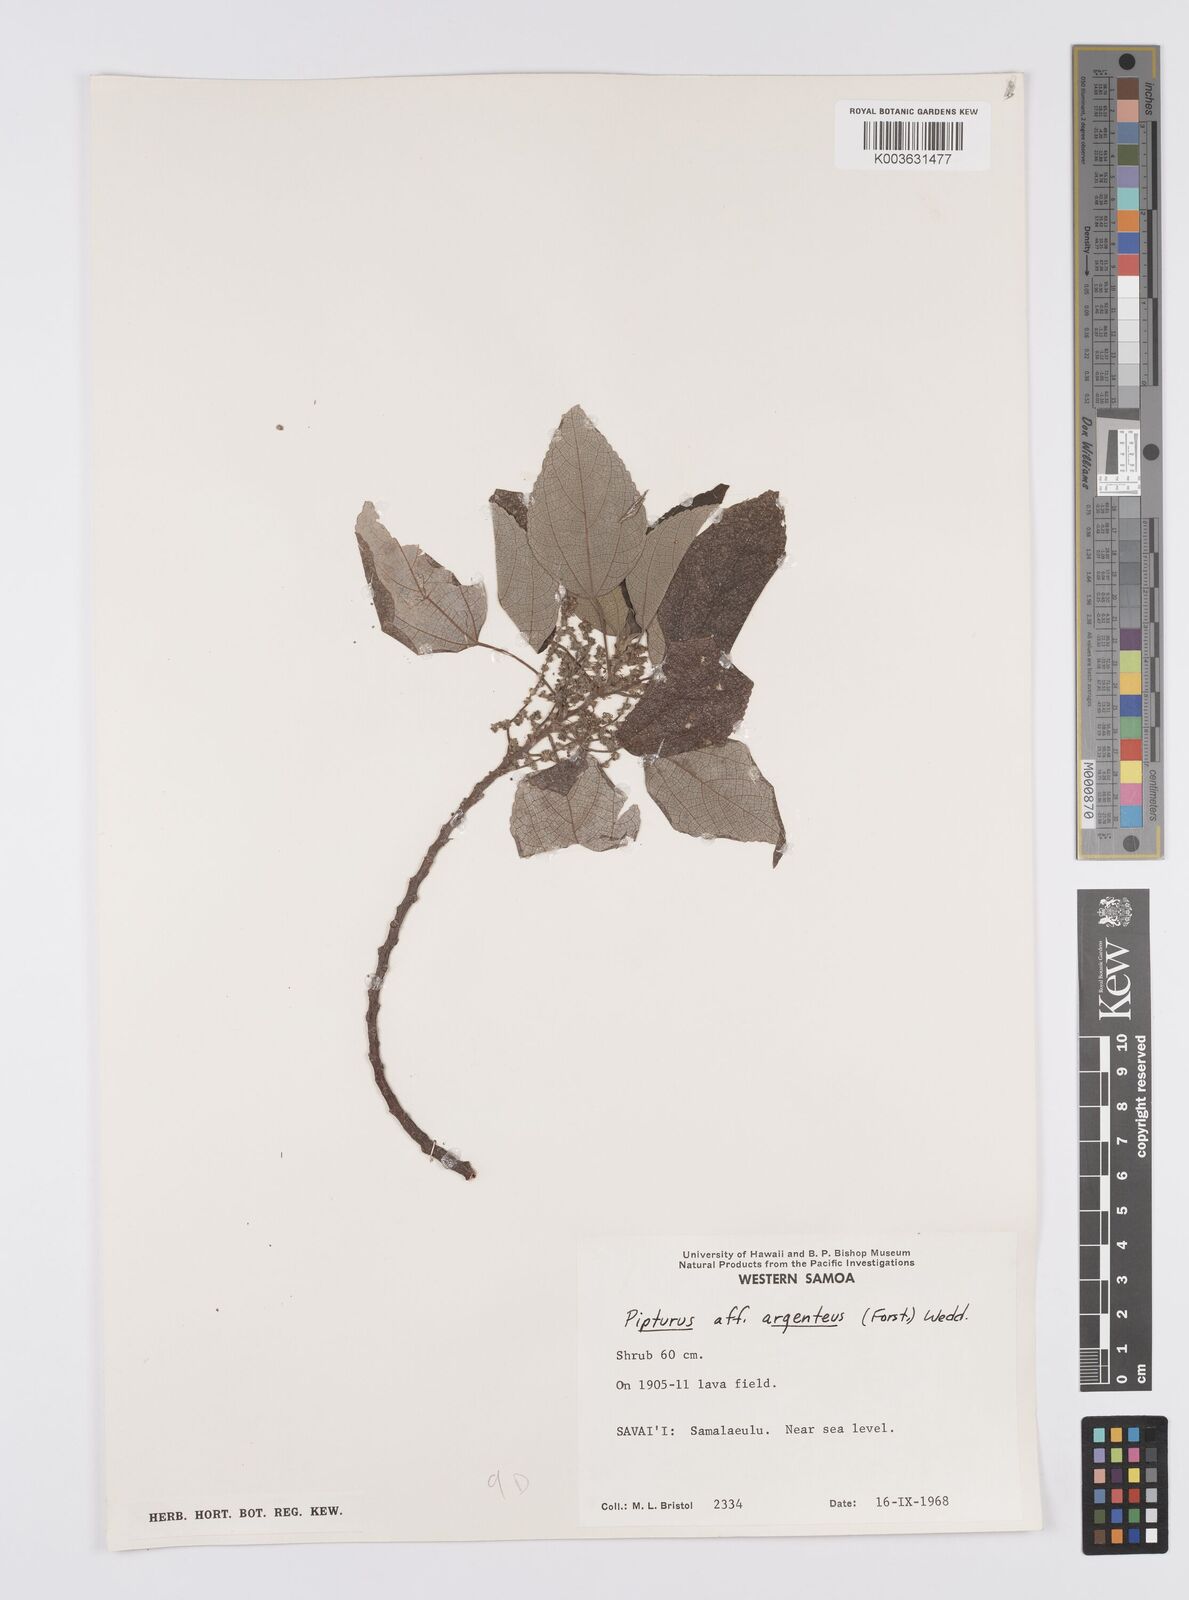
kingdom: Plantae
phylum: Tracheophyta
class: Magnoliopsida
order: Rosales
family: Urticaceae
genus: Pipturus
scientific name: Pipturus argenteus
